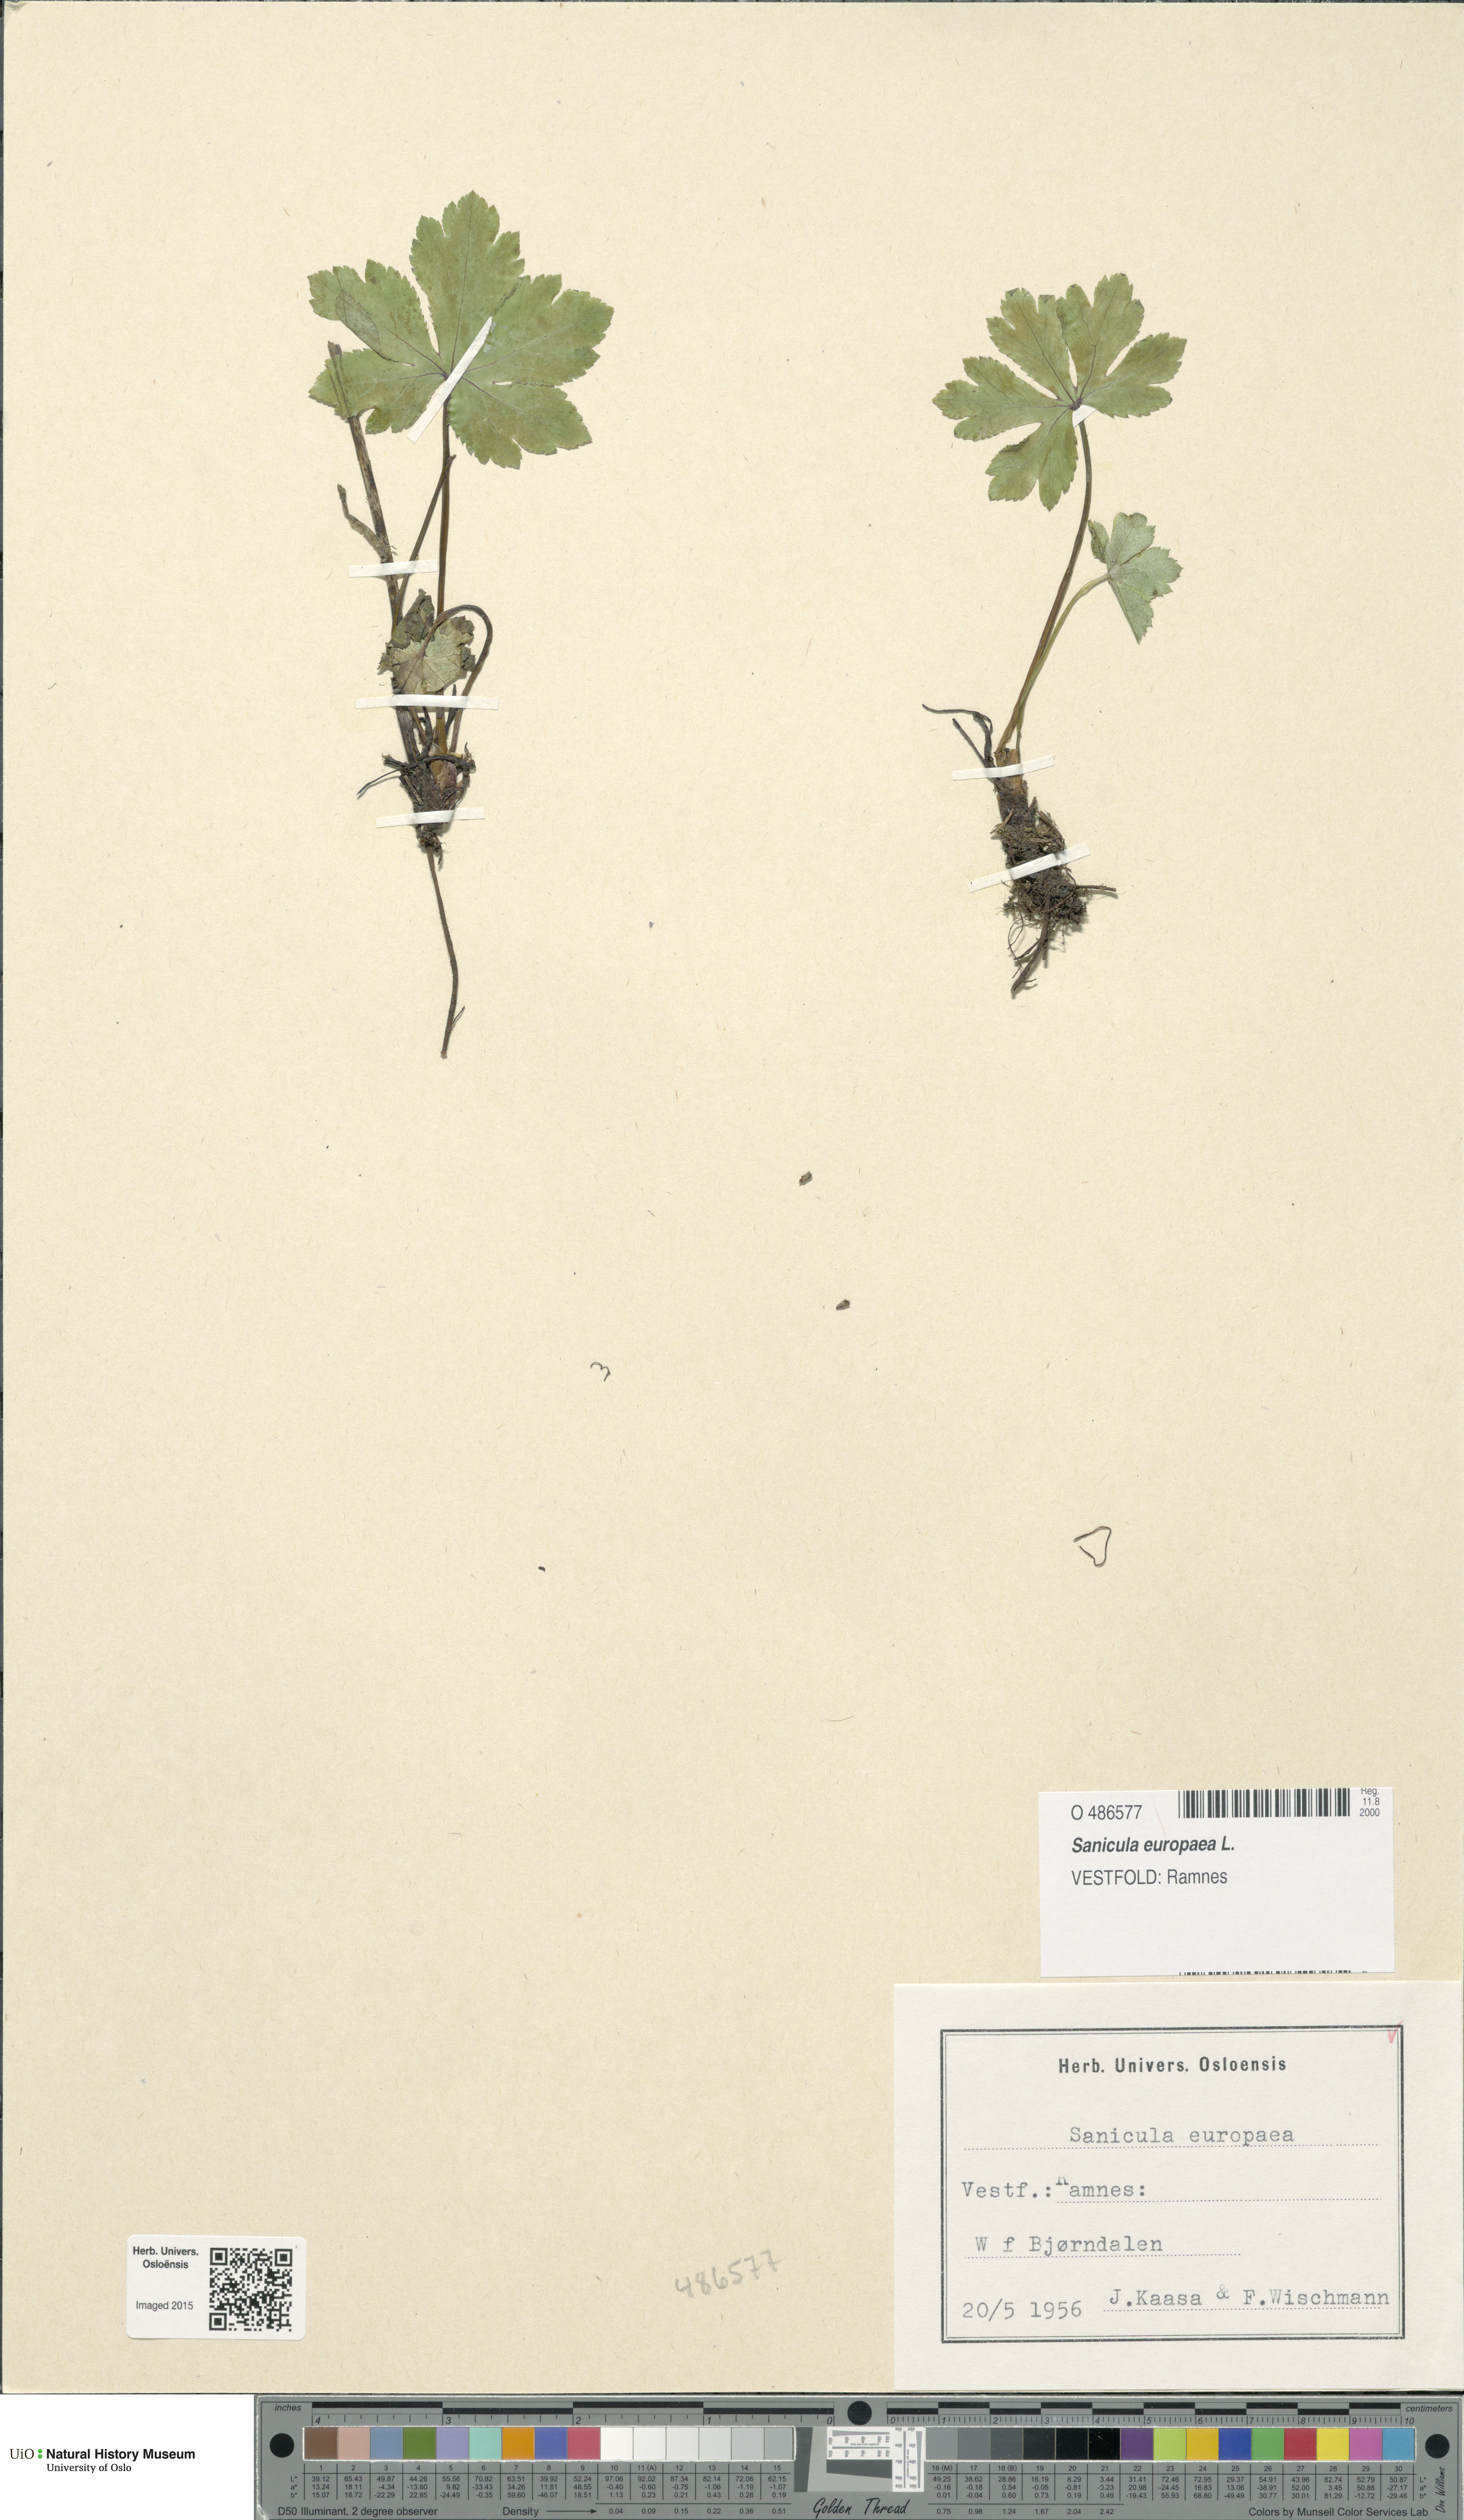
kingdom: Plantae
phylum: Tracheophyta
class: Magnoliopsida
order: Apiales
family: Apiaceae
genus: Sanicula
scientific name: Sanicula europaea
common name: Sanicle
